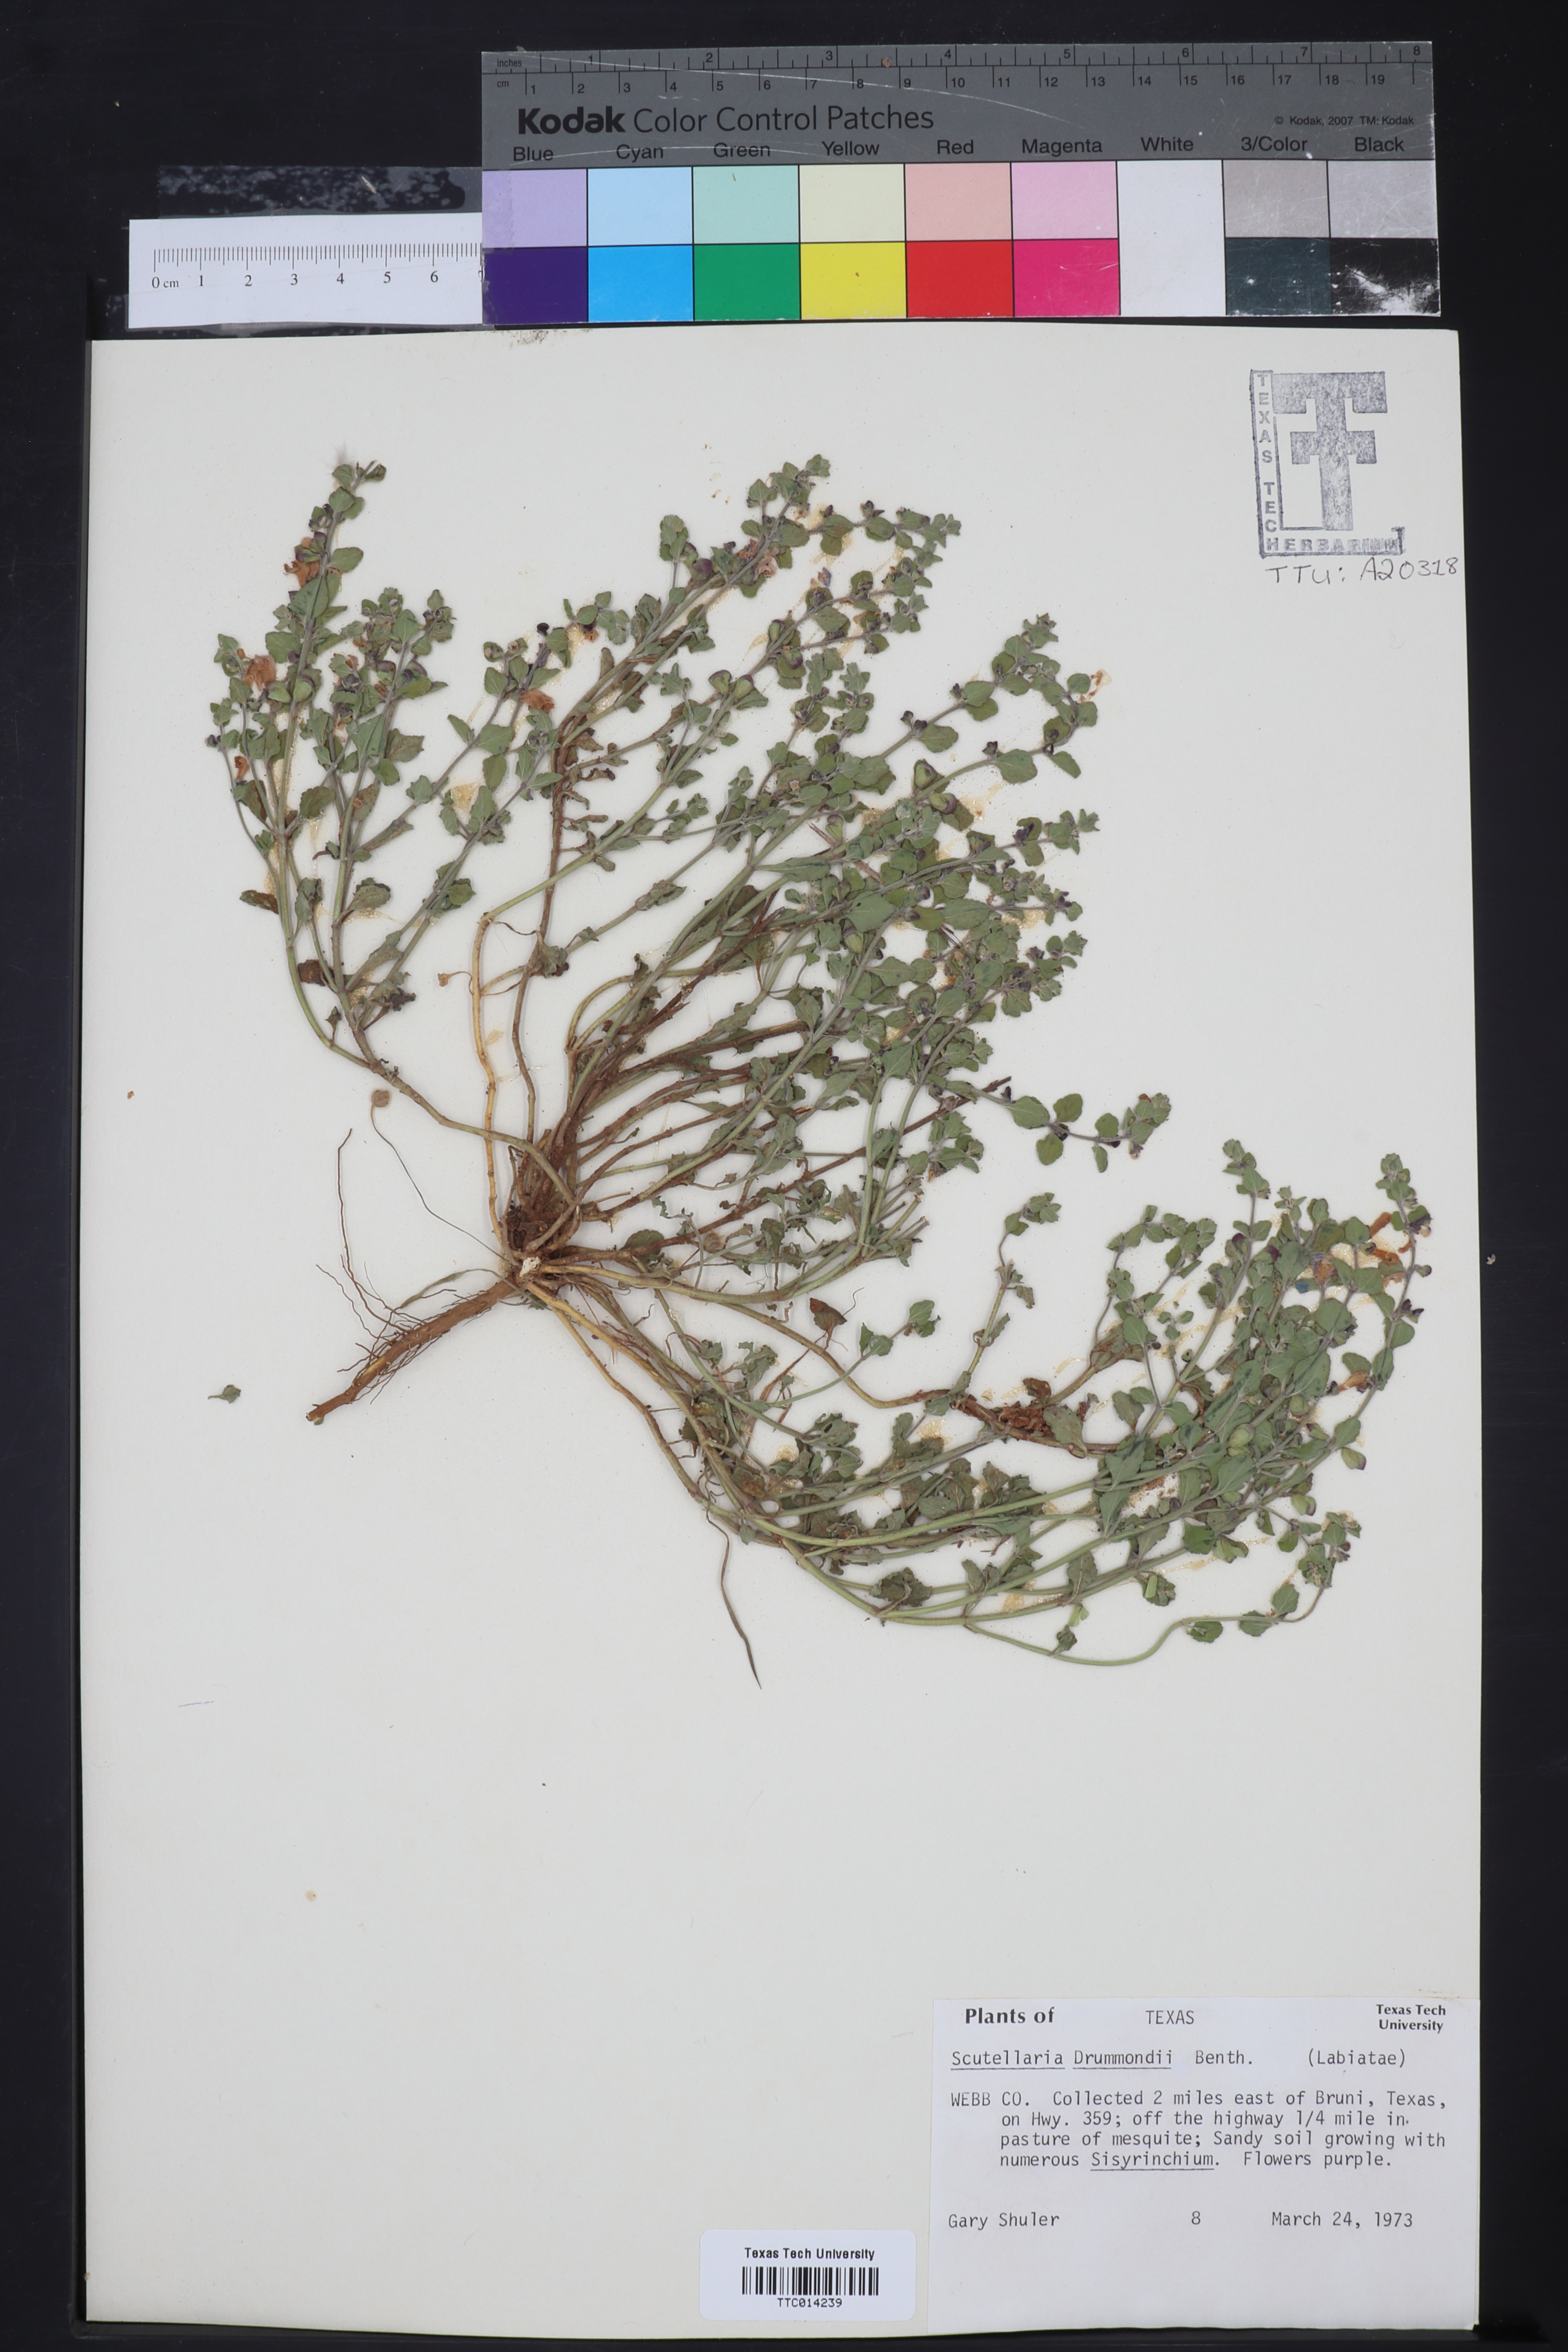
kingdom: Plantae
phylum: Tracheophyta
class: Magnoliopsida
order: Lamiales
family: Lamiaceae
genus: Scutellaria
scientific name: Scutellaria drummondii
